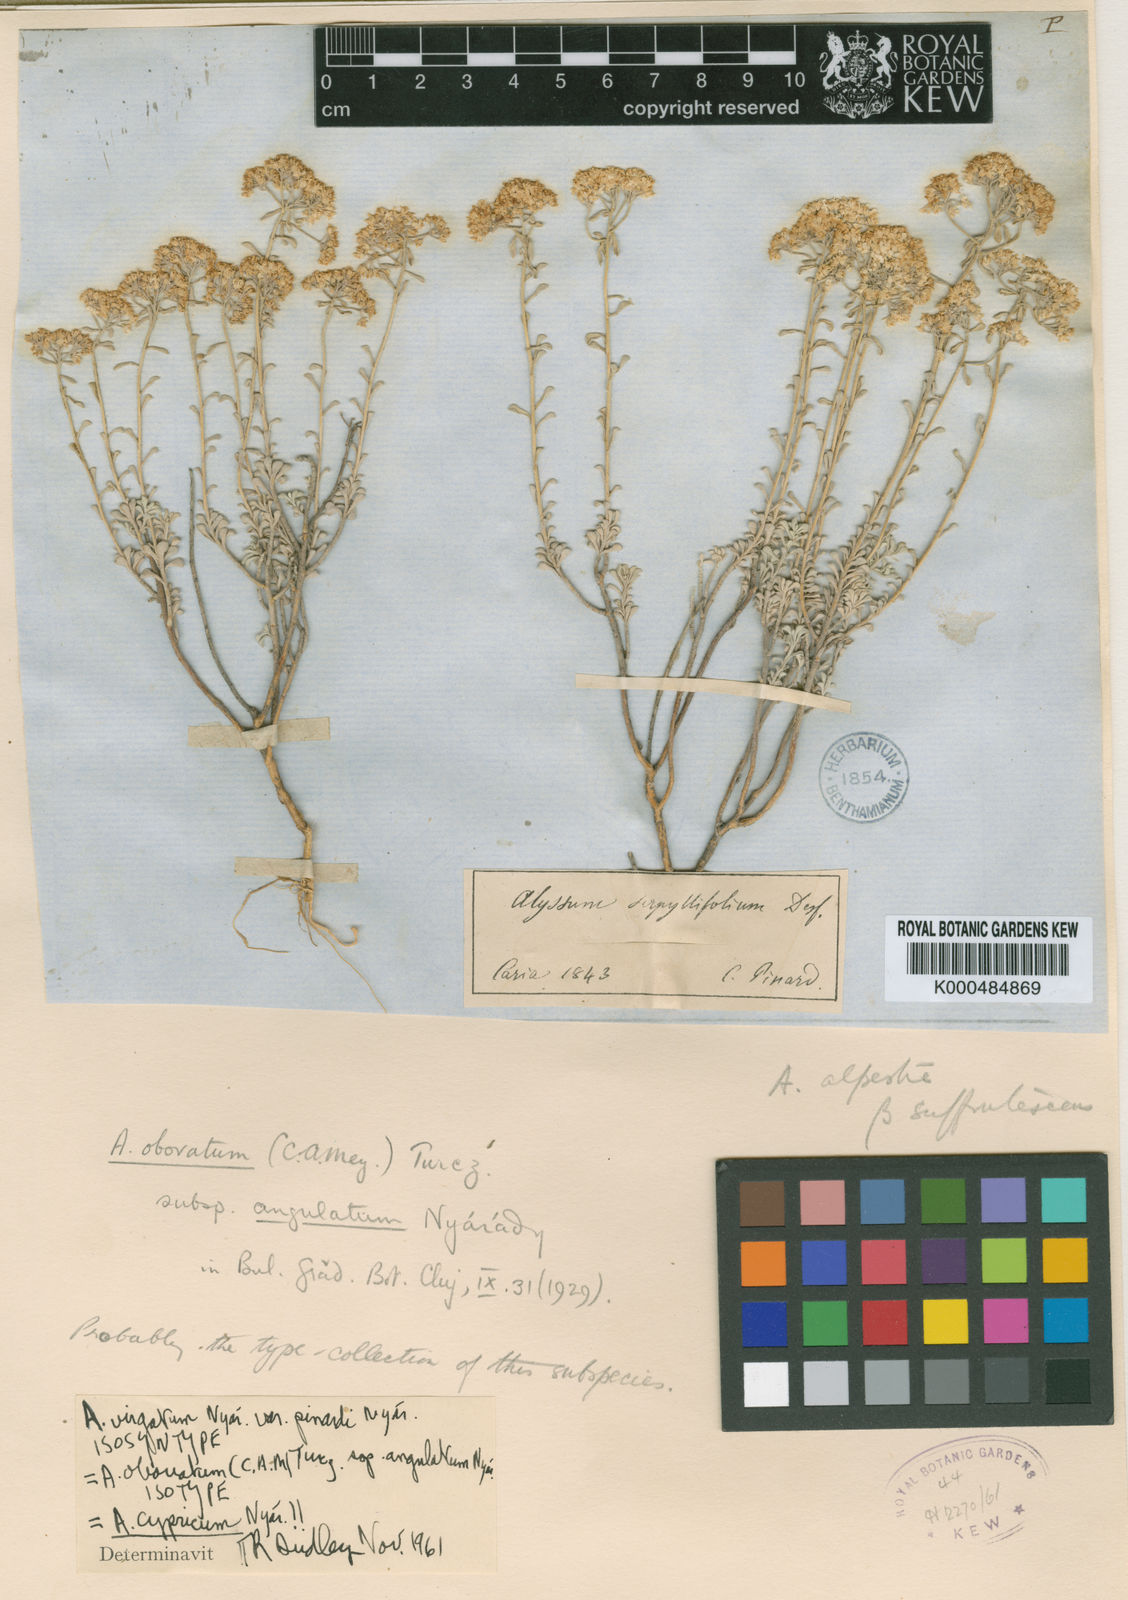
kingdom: Plantae
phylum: Tracheophyta
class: Magnoliopsida
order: Brassicales
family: Brassicaceae
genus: Odontarrhena
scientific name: Odontarrhena condensata
